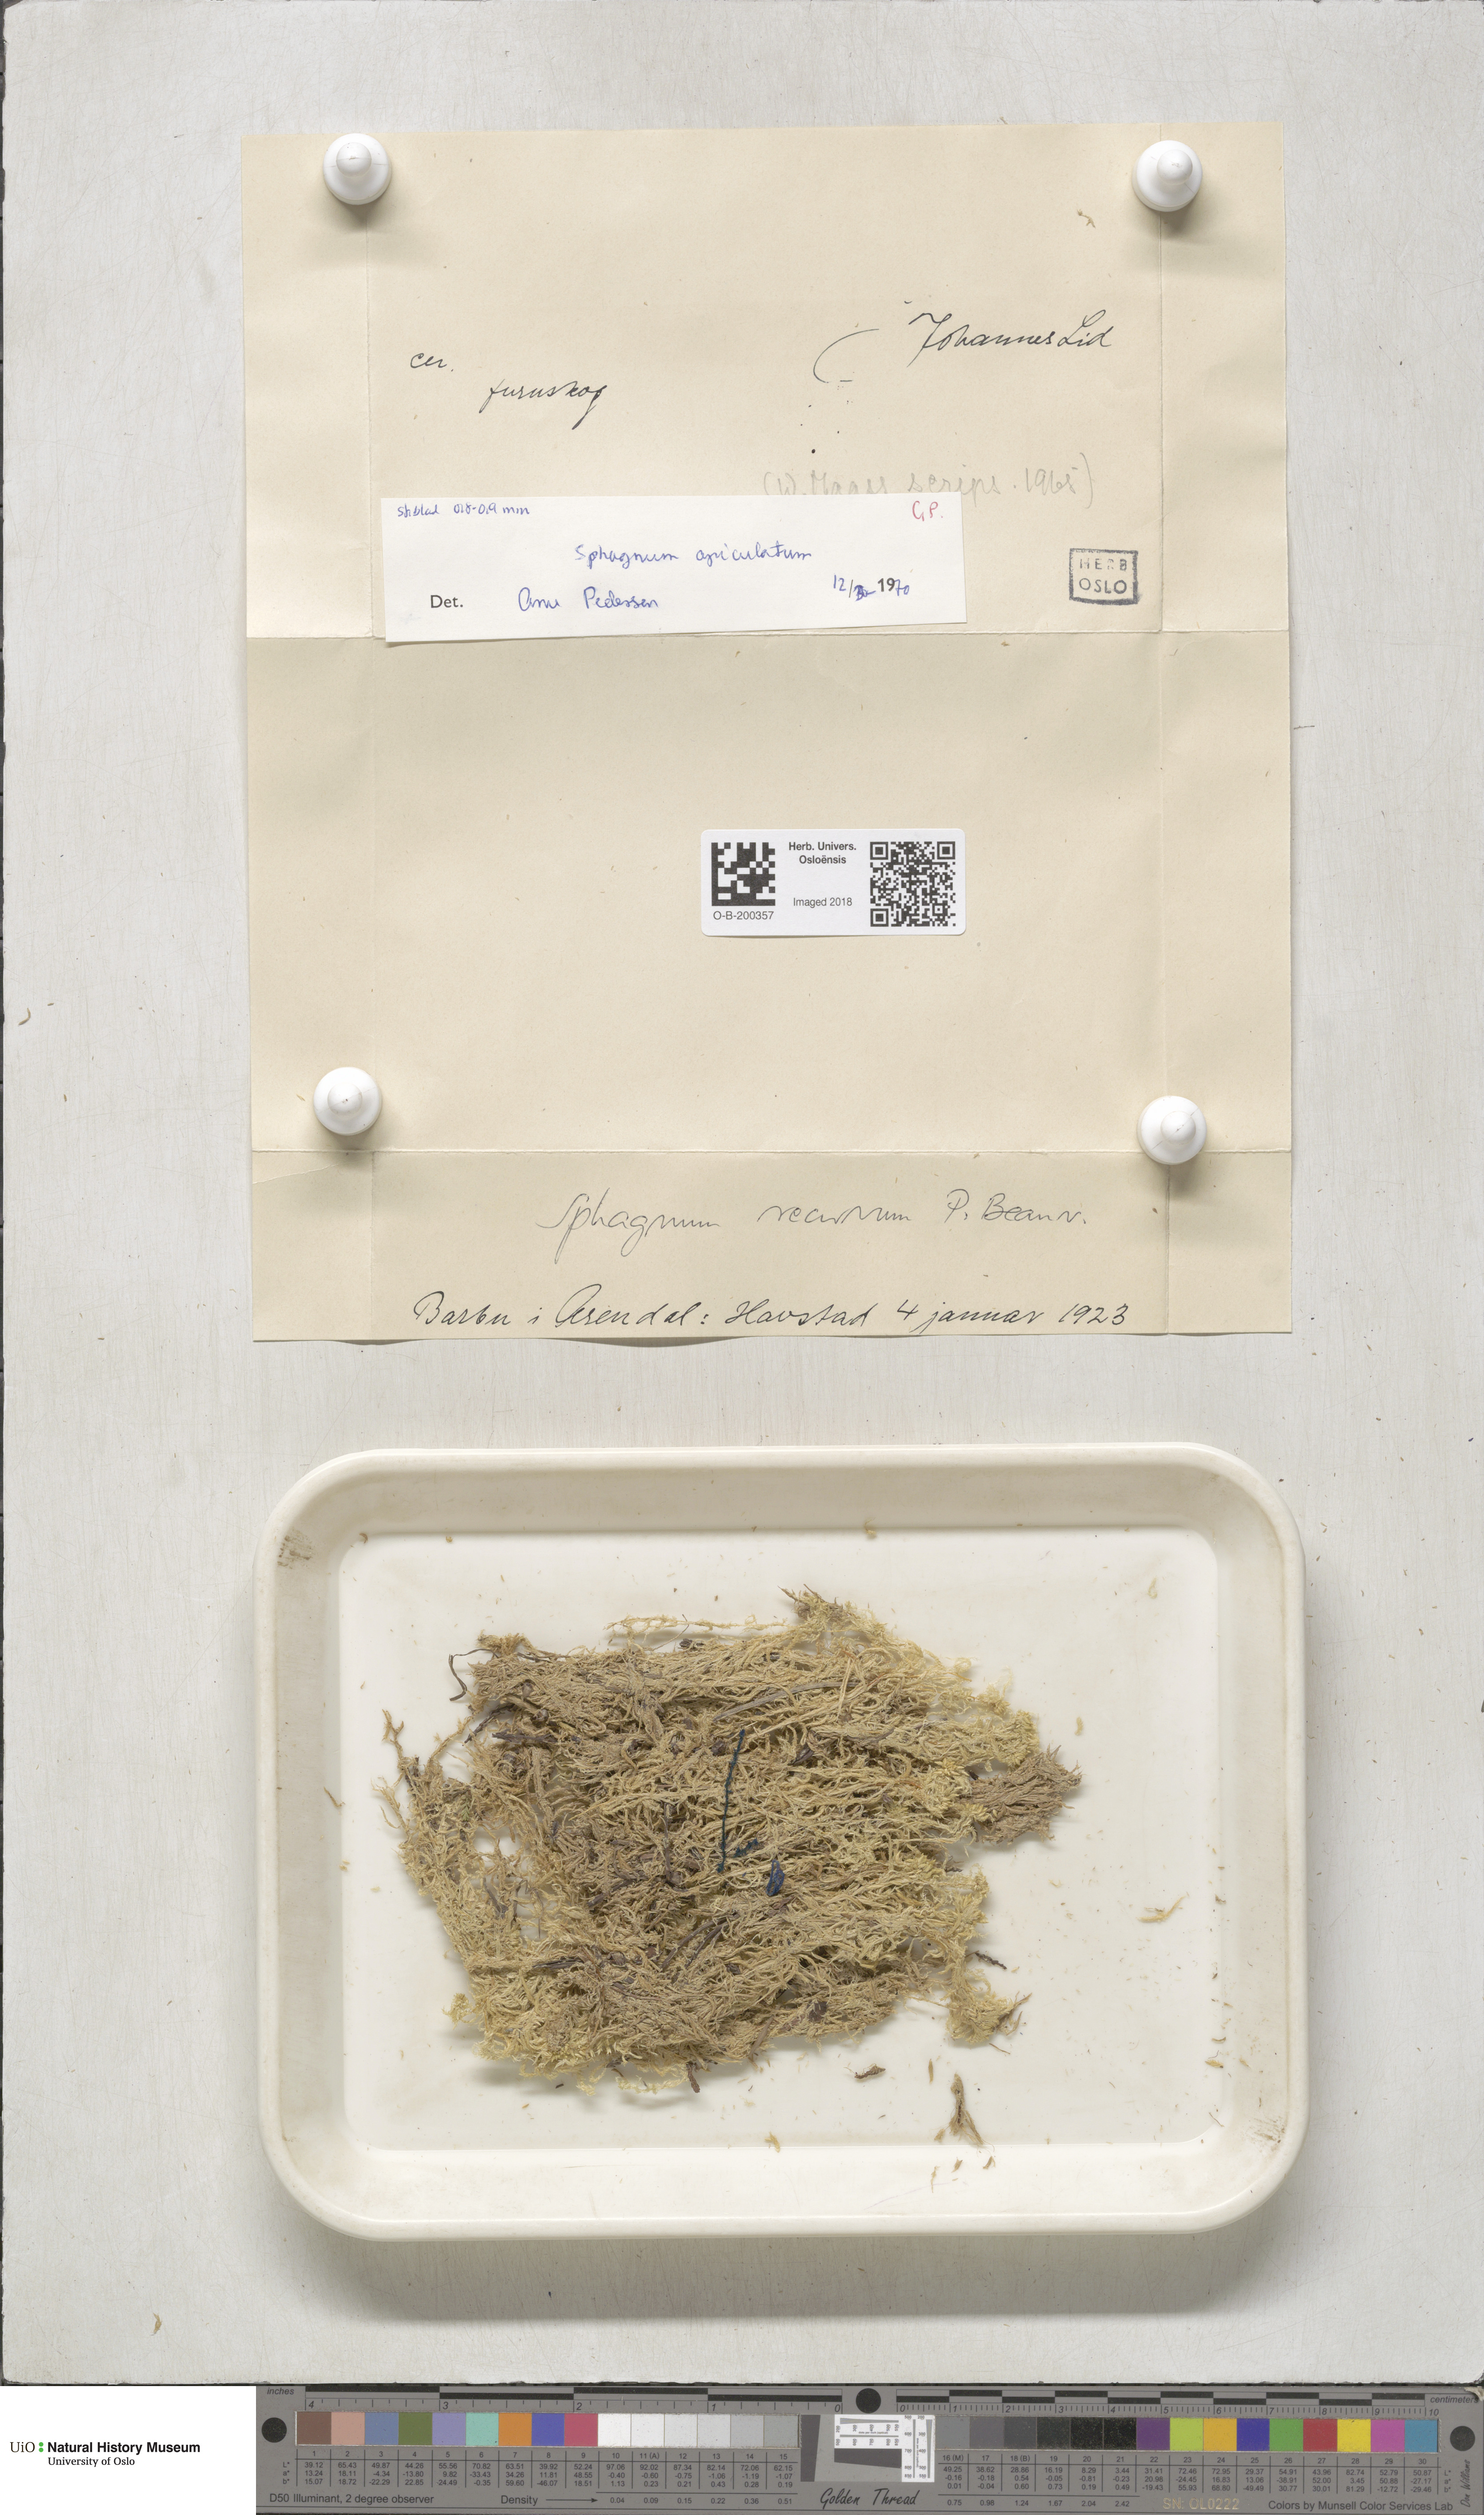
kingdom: Plantae
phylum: Bryophyta
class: Sphagnopsida
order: Sphagnales
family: Sphagnaceae
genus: Sphagnum
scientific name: Sphagnum fallax
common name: Flat-top peat moss
